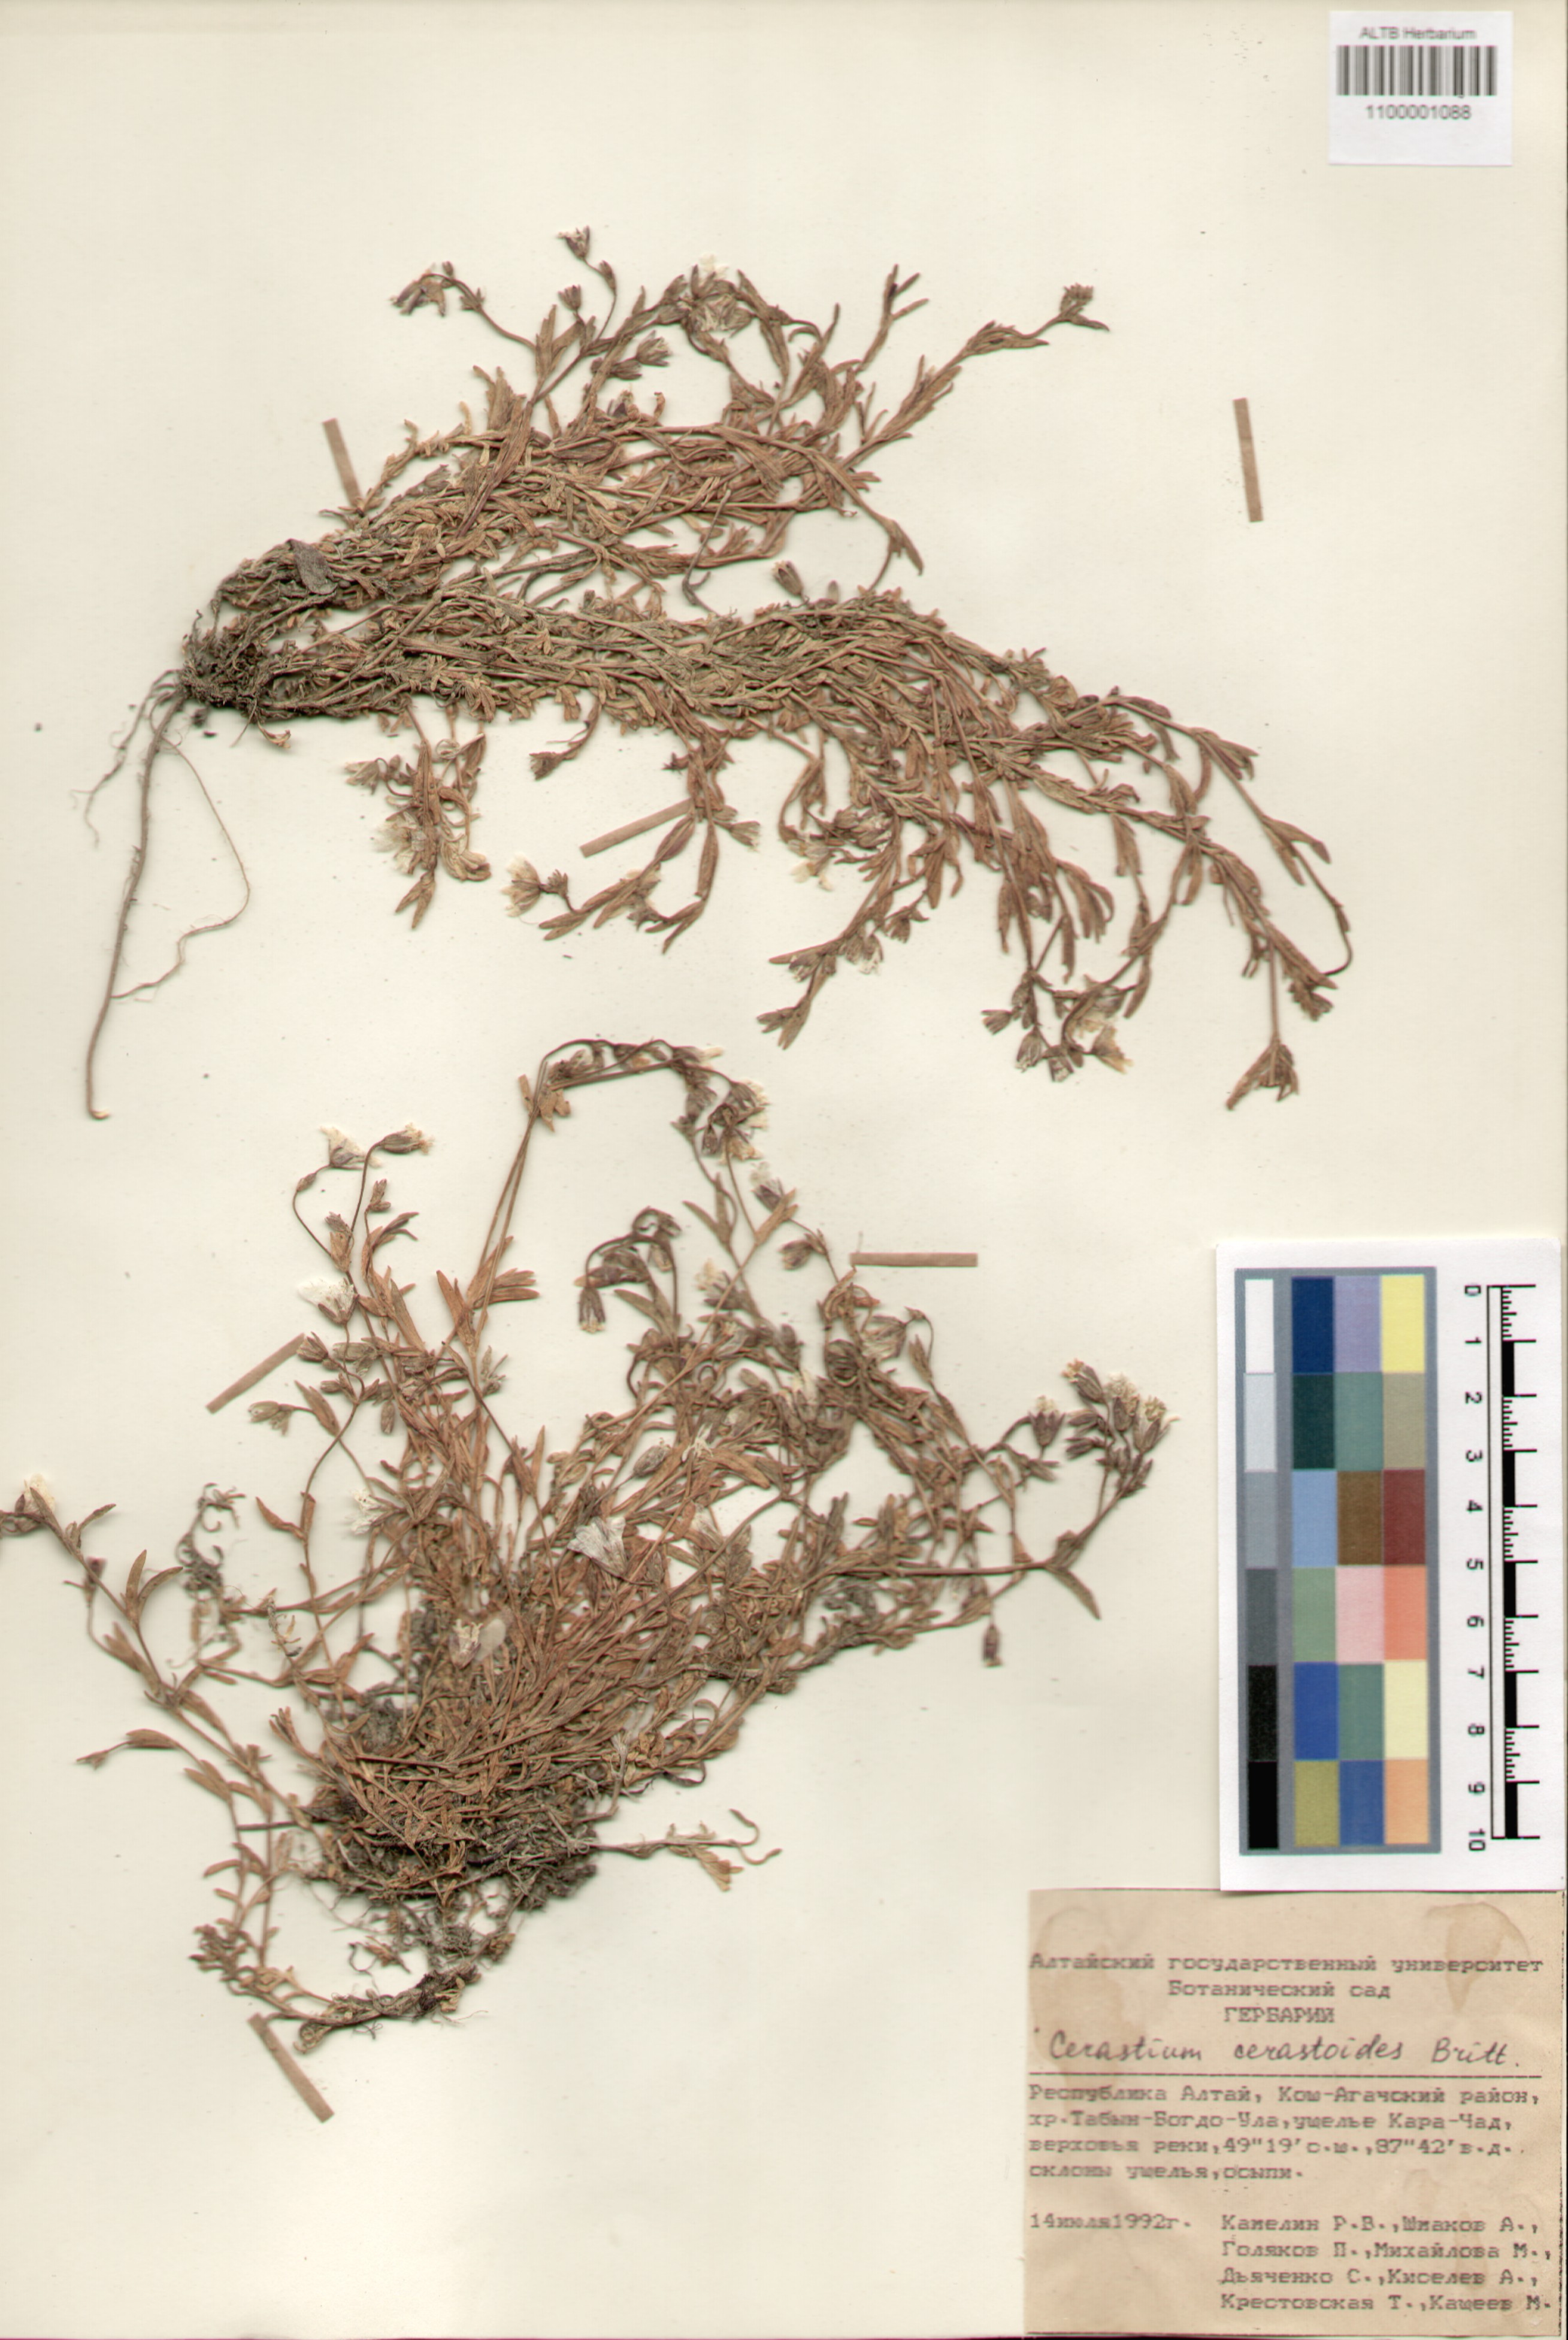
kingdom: Plantae
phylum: Tracheophyta
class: Magnoliopsida
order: Caryophyllales
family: Caryophyllaceae
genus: Dichodon
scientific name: Dichodon cerastoides
